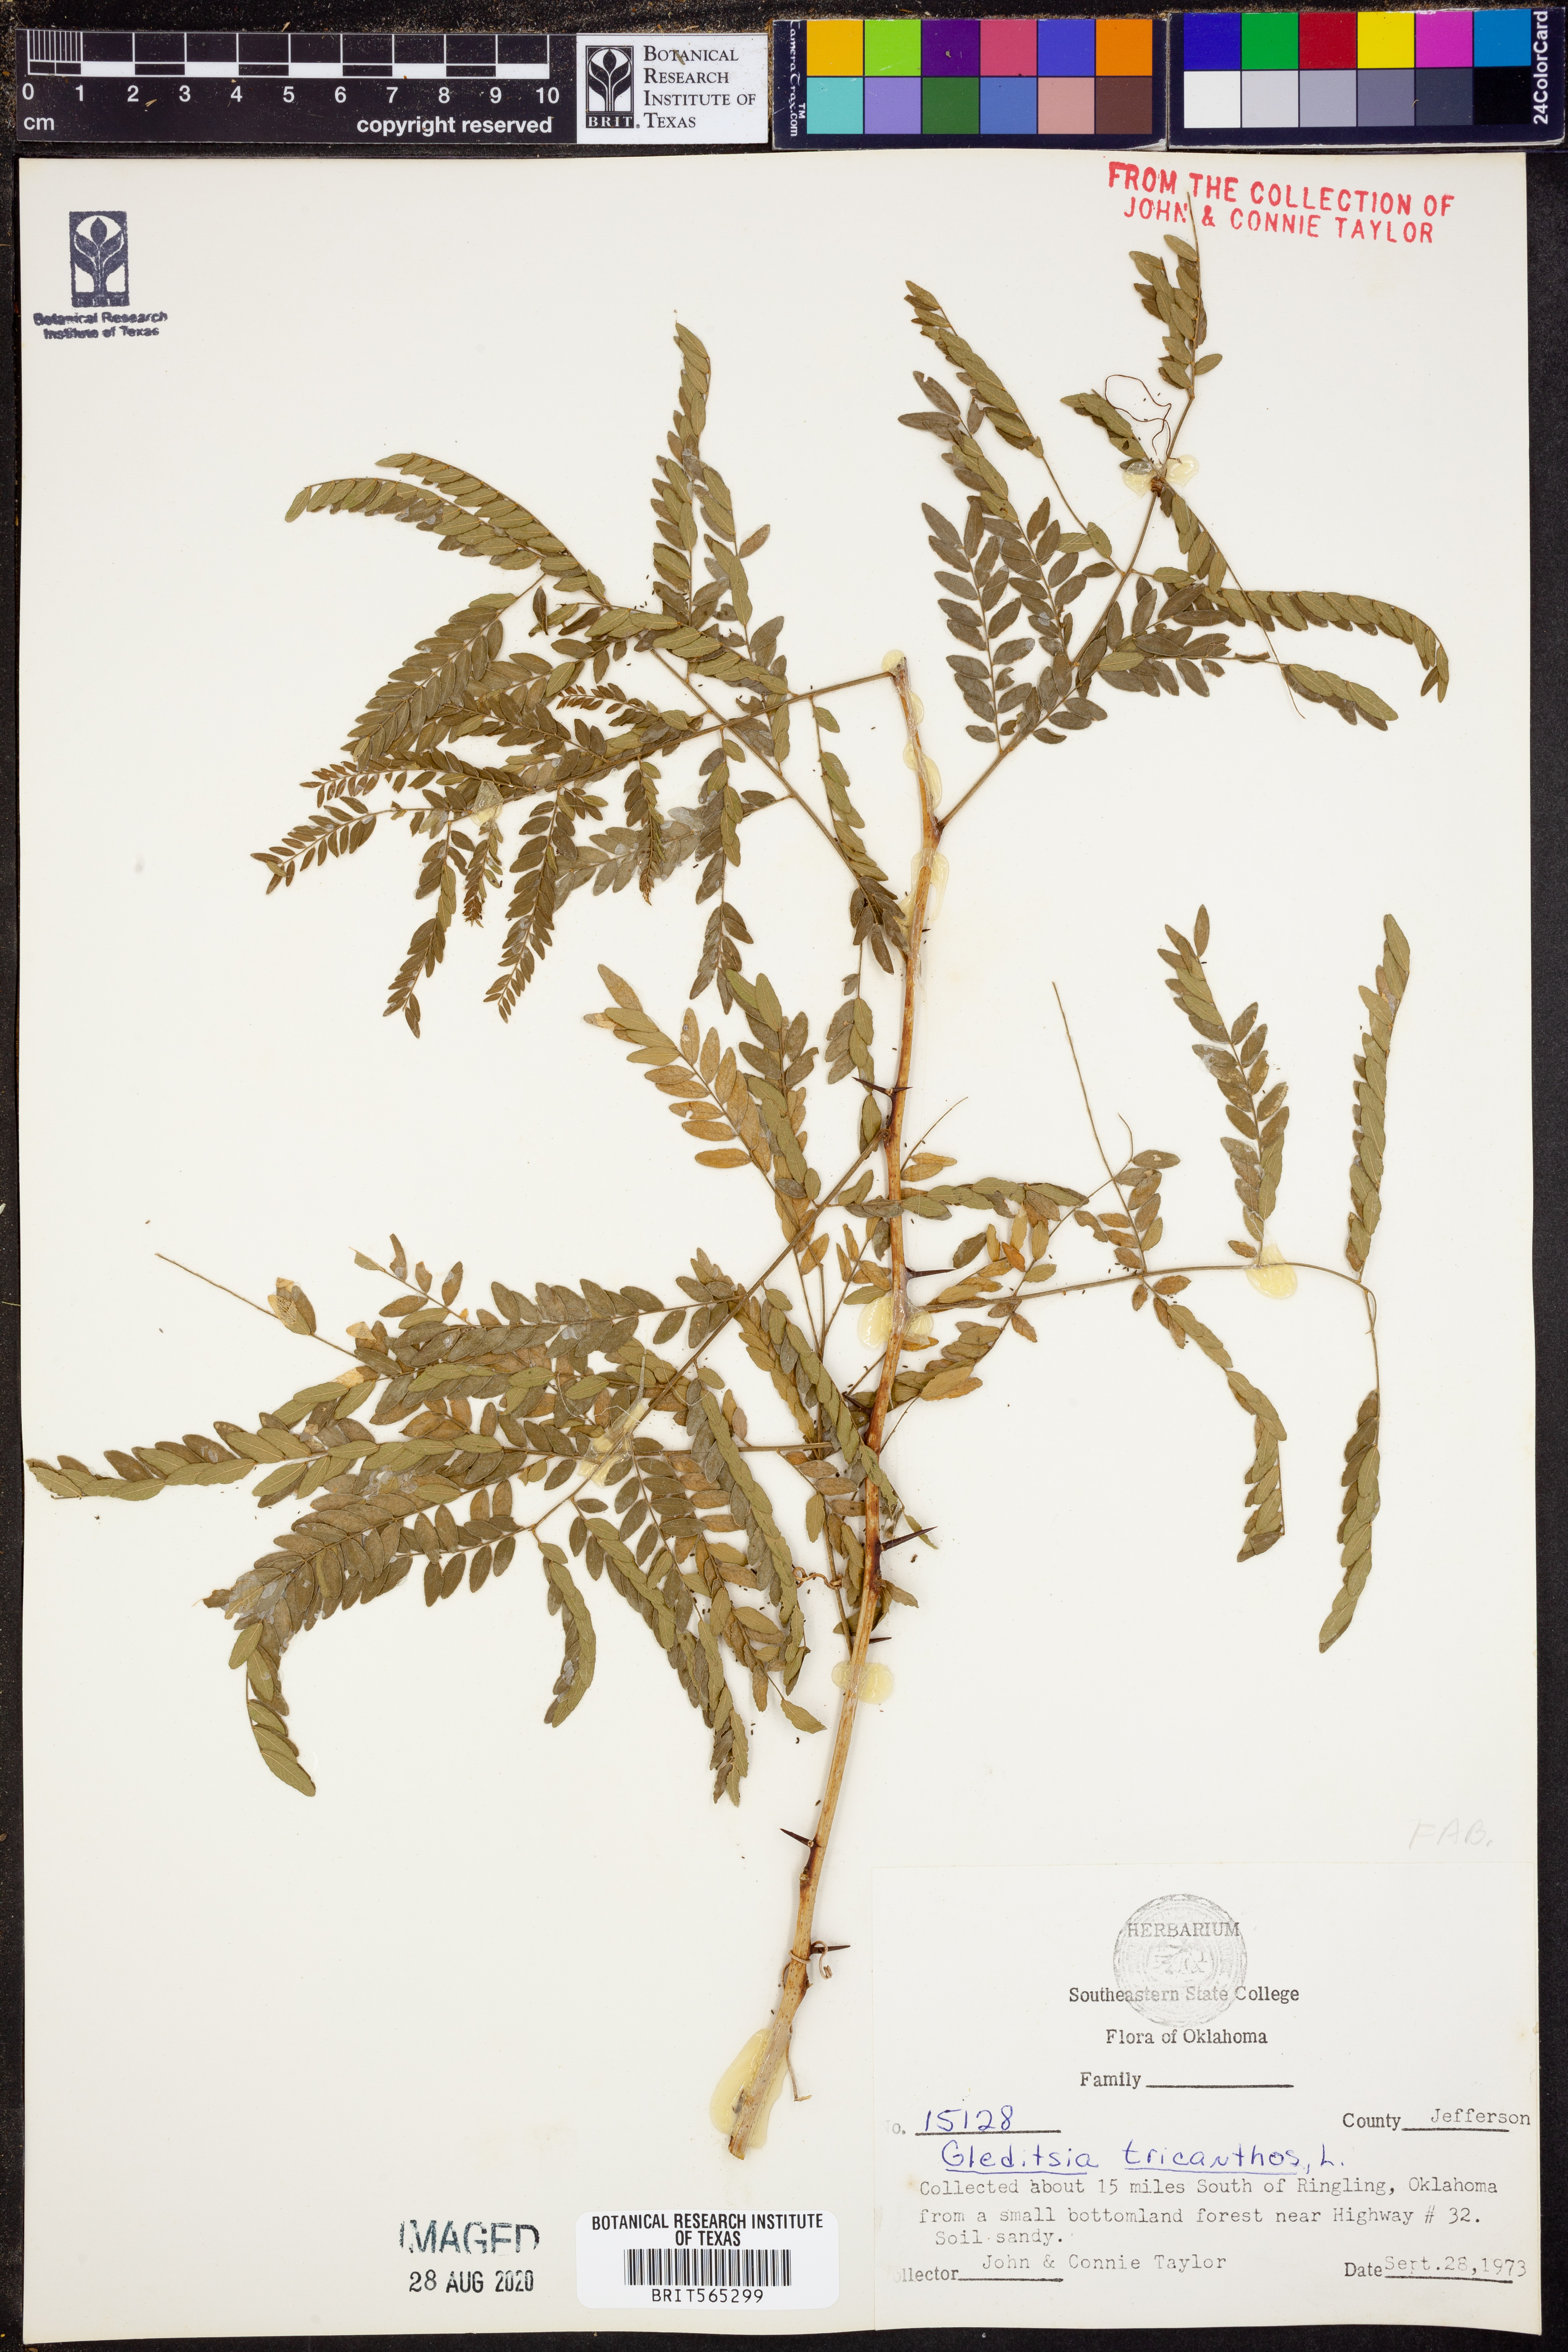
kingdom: Plantae
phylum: Tracheophyta
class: Magnoliopsida
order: Fabales
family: Fabaceae
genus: Gleditsia
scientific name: Gleditsia triacanthos
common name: Common honeylocust
